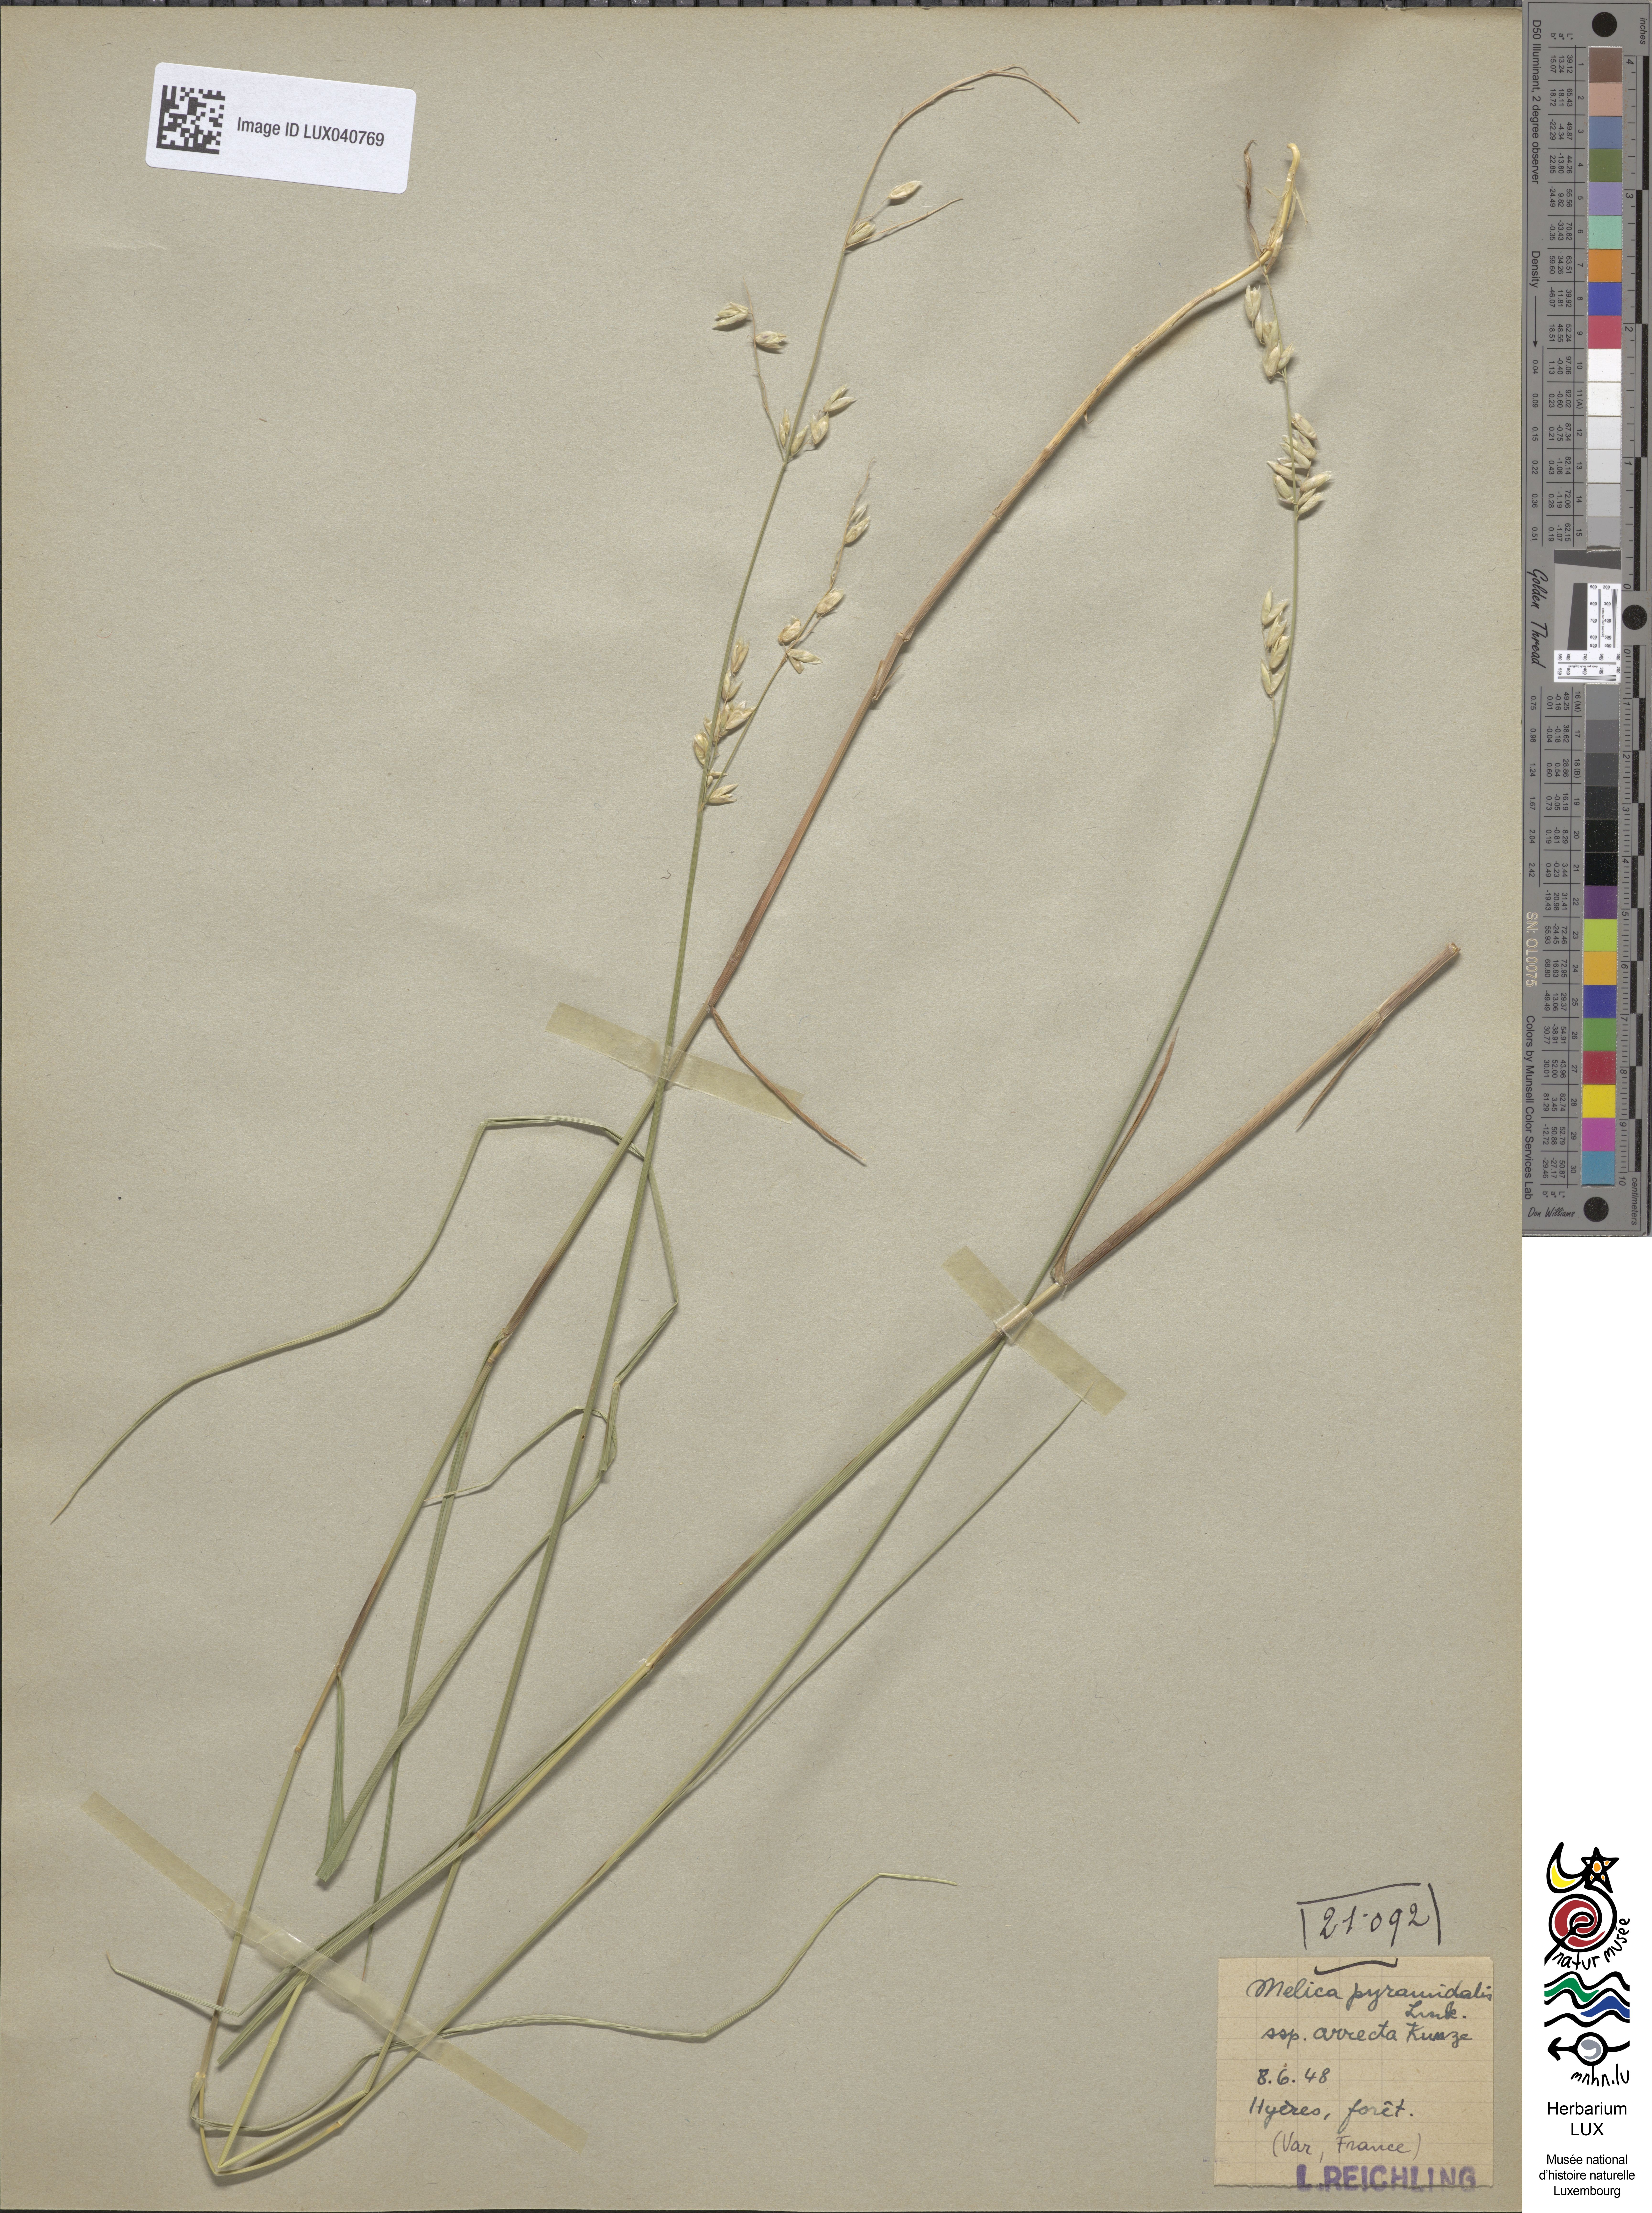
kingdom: Plantae
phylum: Tracheophyta
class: Liliopsida
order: Poales
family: Poaceae
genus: Melica
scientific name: Melica minuta
